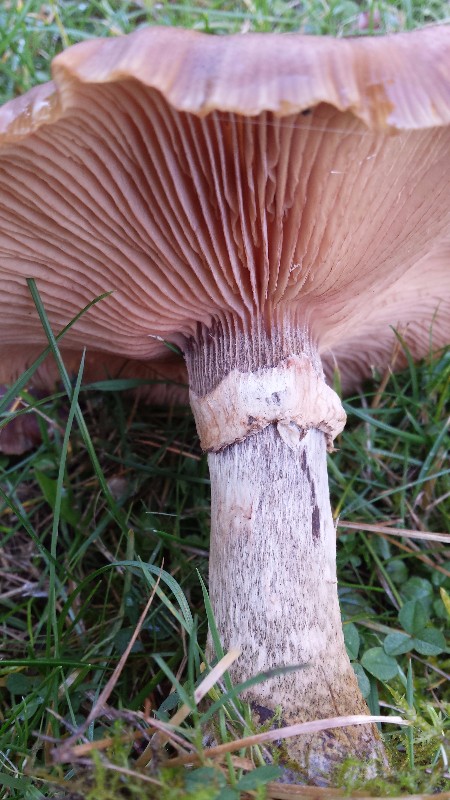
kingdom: Fungi
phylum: Basidiomycota
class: Agaricomycetes
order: Agaricales
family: Physalacriaceae
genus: Armillaria
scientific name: Armillaria
